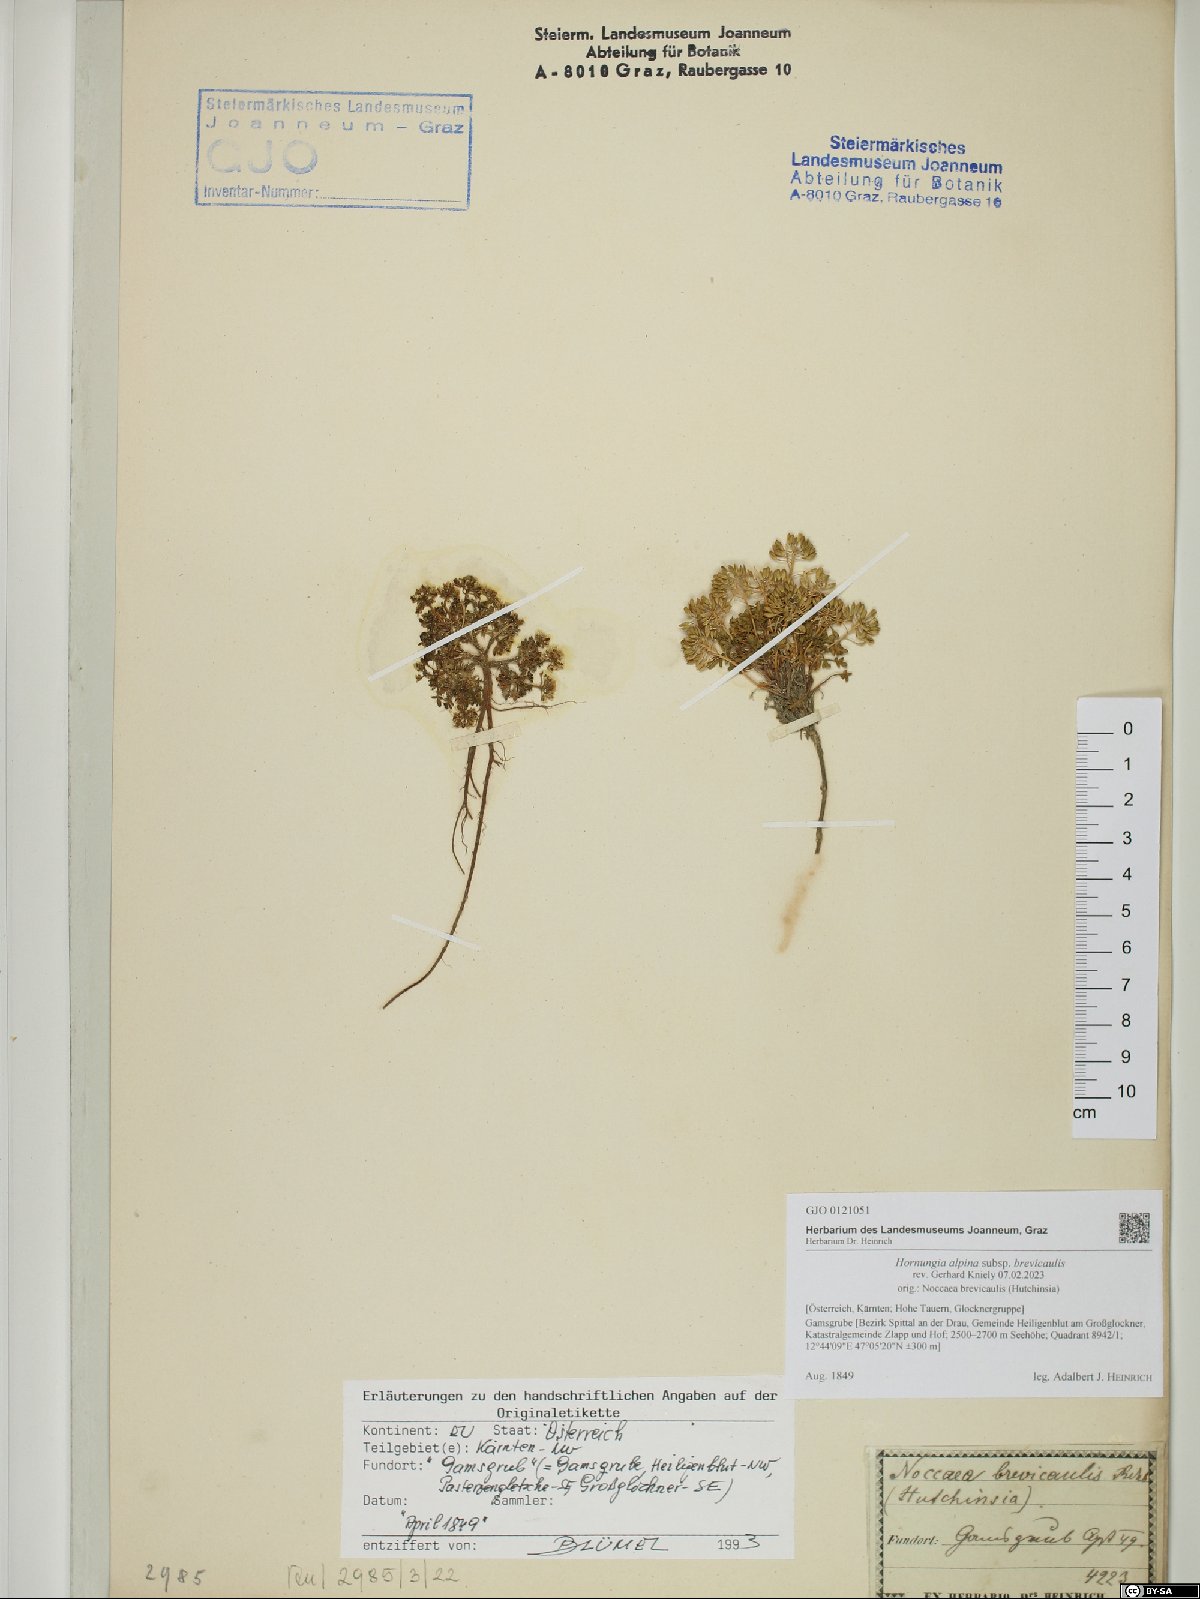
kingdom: Plantae
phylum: Tracheophyta
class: Magnoliopsida
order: Brassicales
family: Brassicaceae
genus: Hornungia
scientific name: Hornungia alpina
